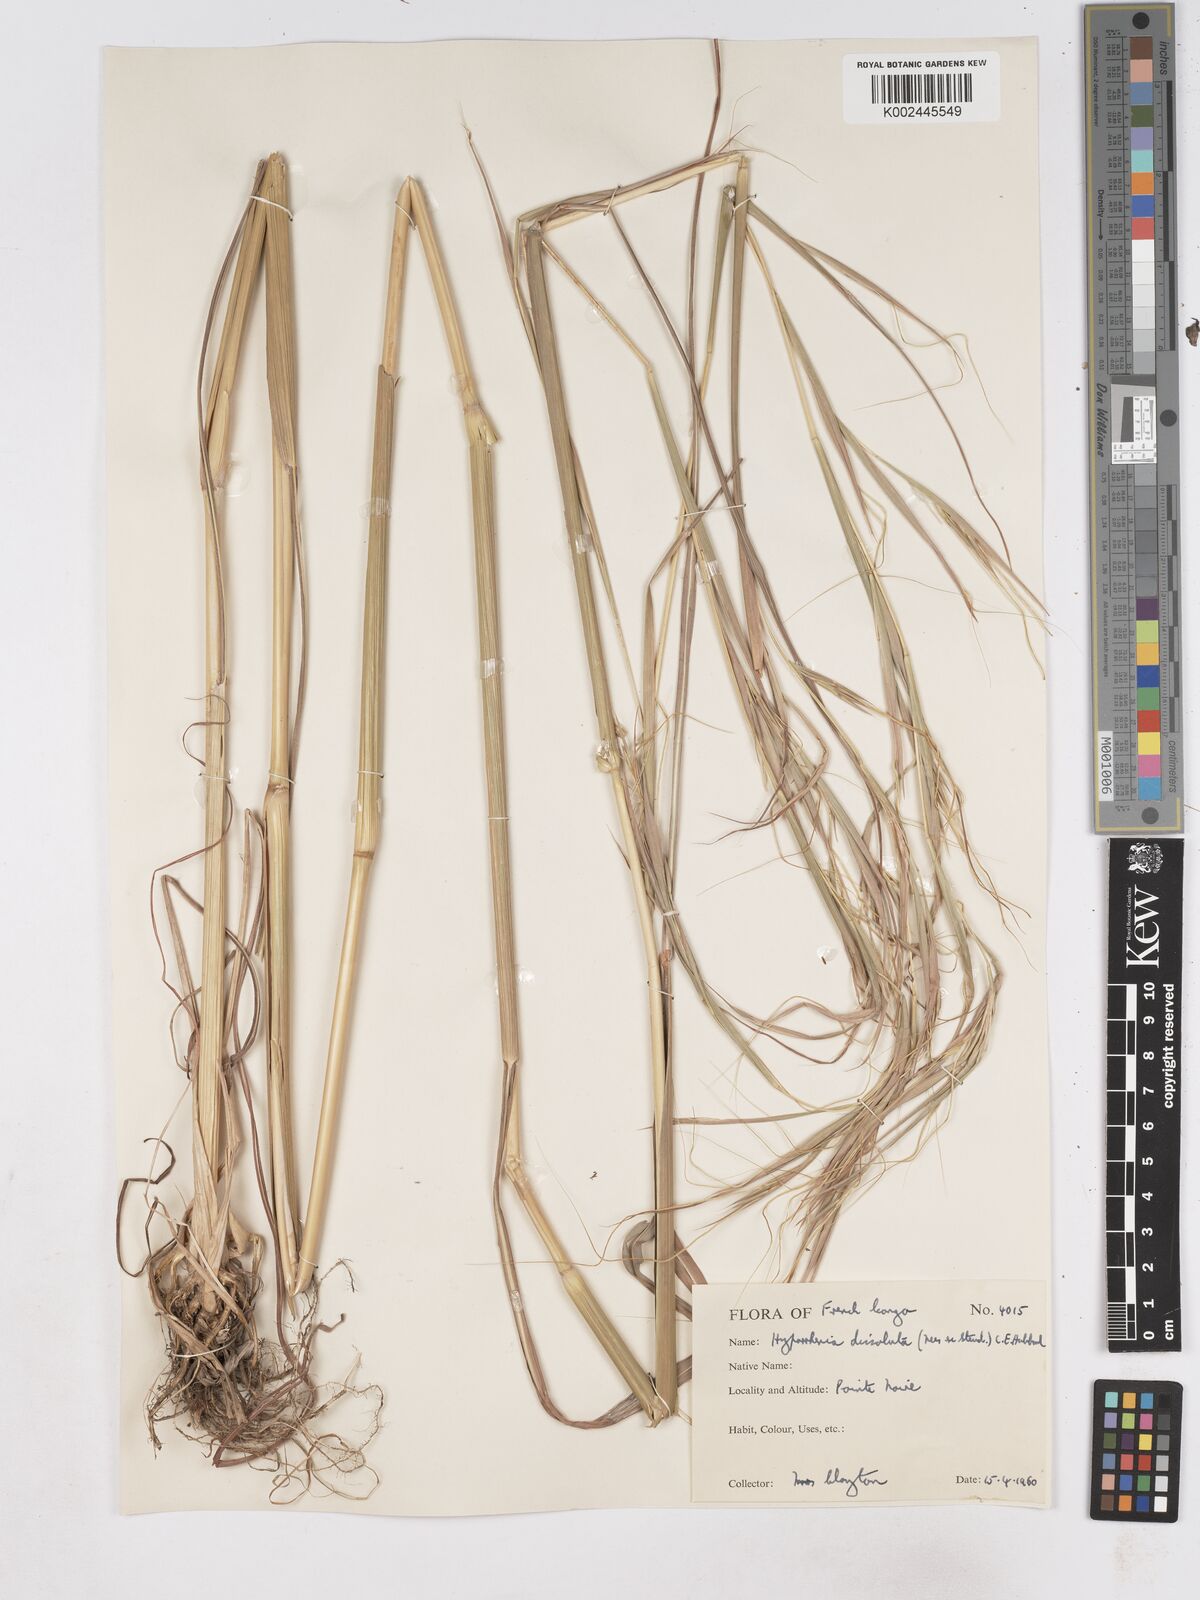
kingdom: Plantae
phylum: Tracheophyta
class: Liliopsida
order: Poales
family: Poaceae
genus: Hyperthelia
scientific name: Hyperthelia dissoluta
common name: Yellow thatching grass
